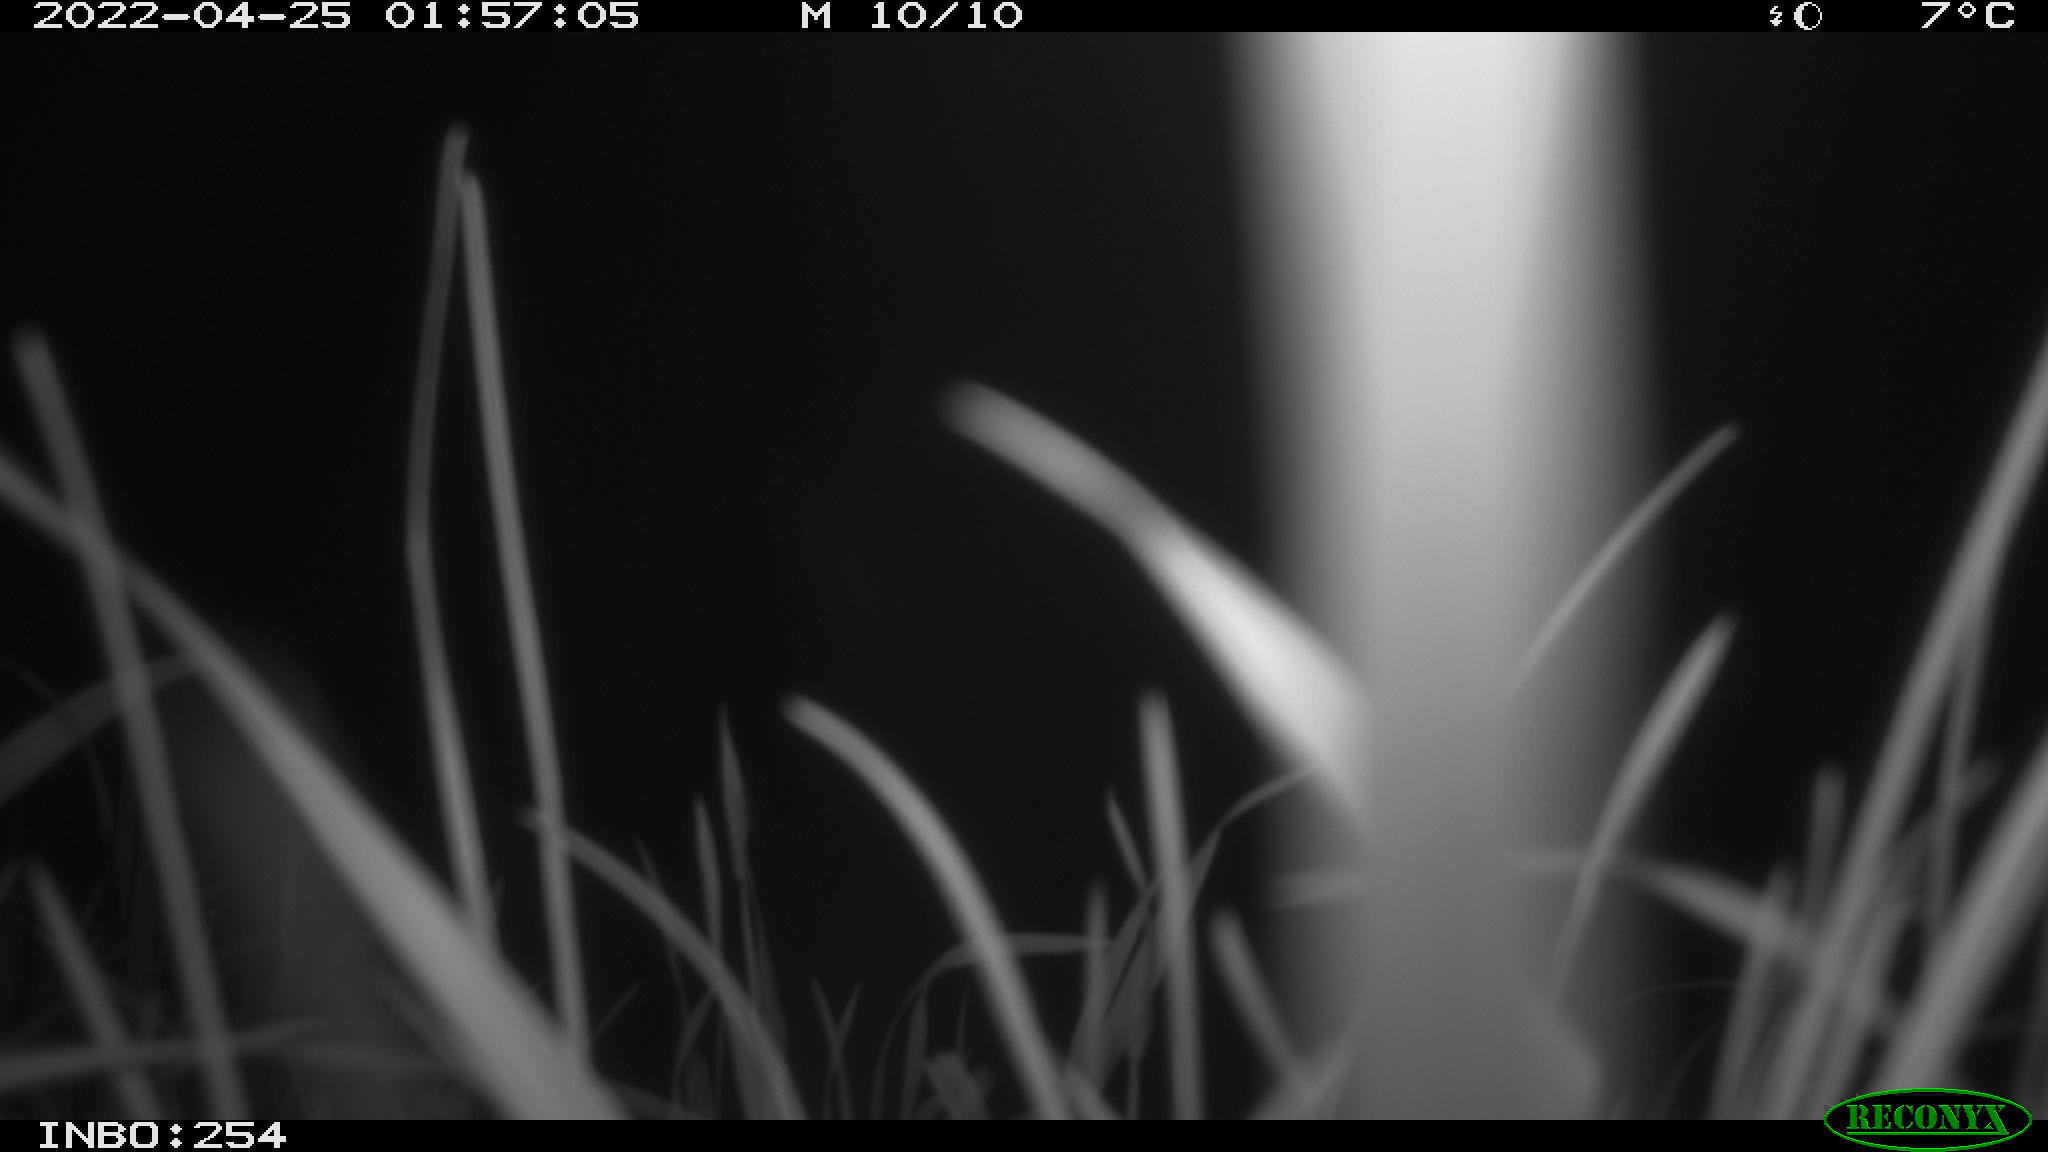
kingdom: Animalia
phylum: Chordata
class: Aves
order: Anseriformes
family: Anatidae
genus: Anas
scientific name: Anas platyrhynchos
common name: Mallard
